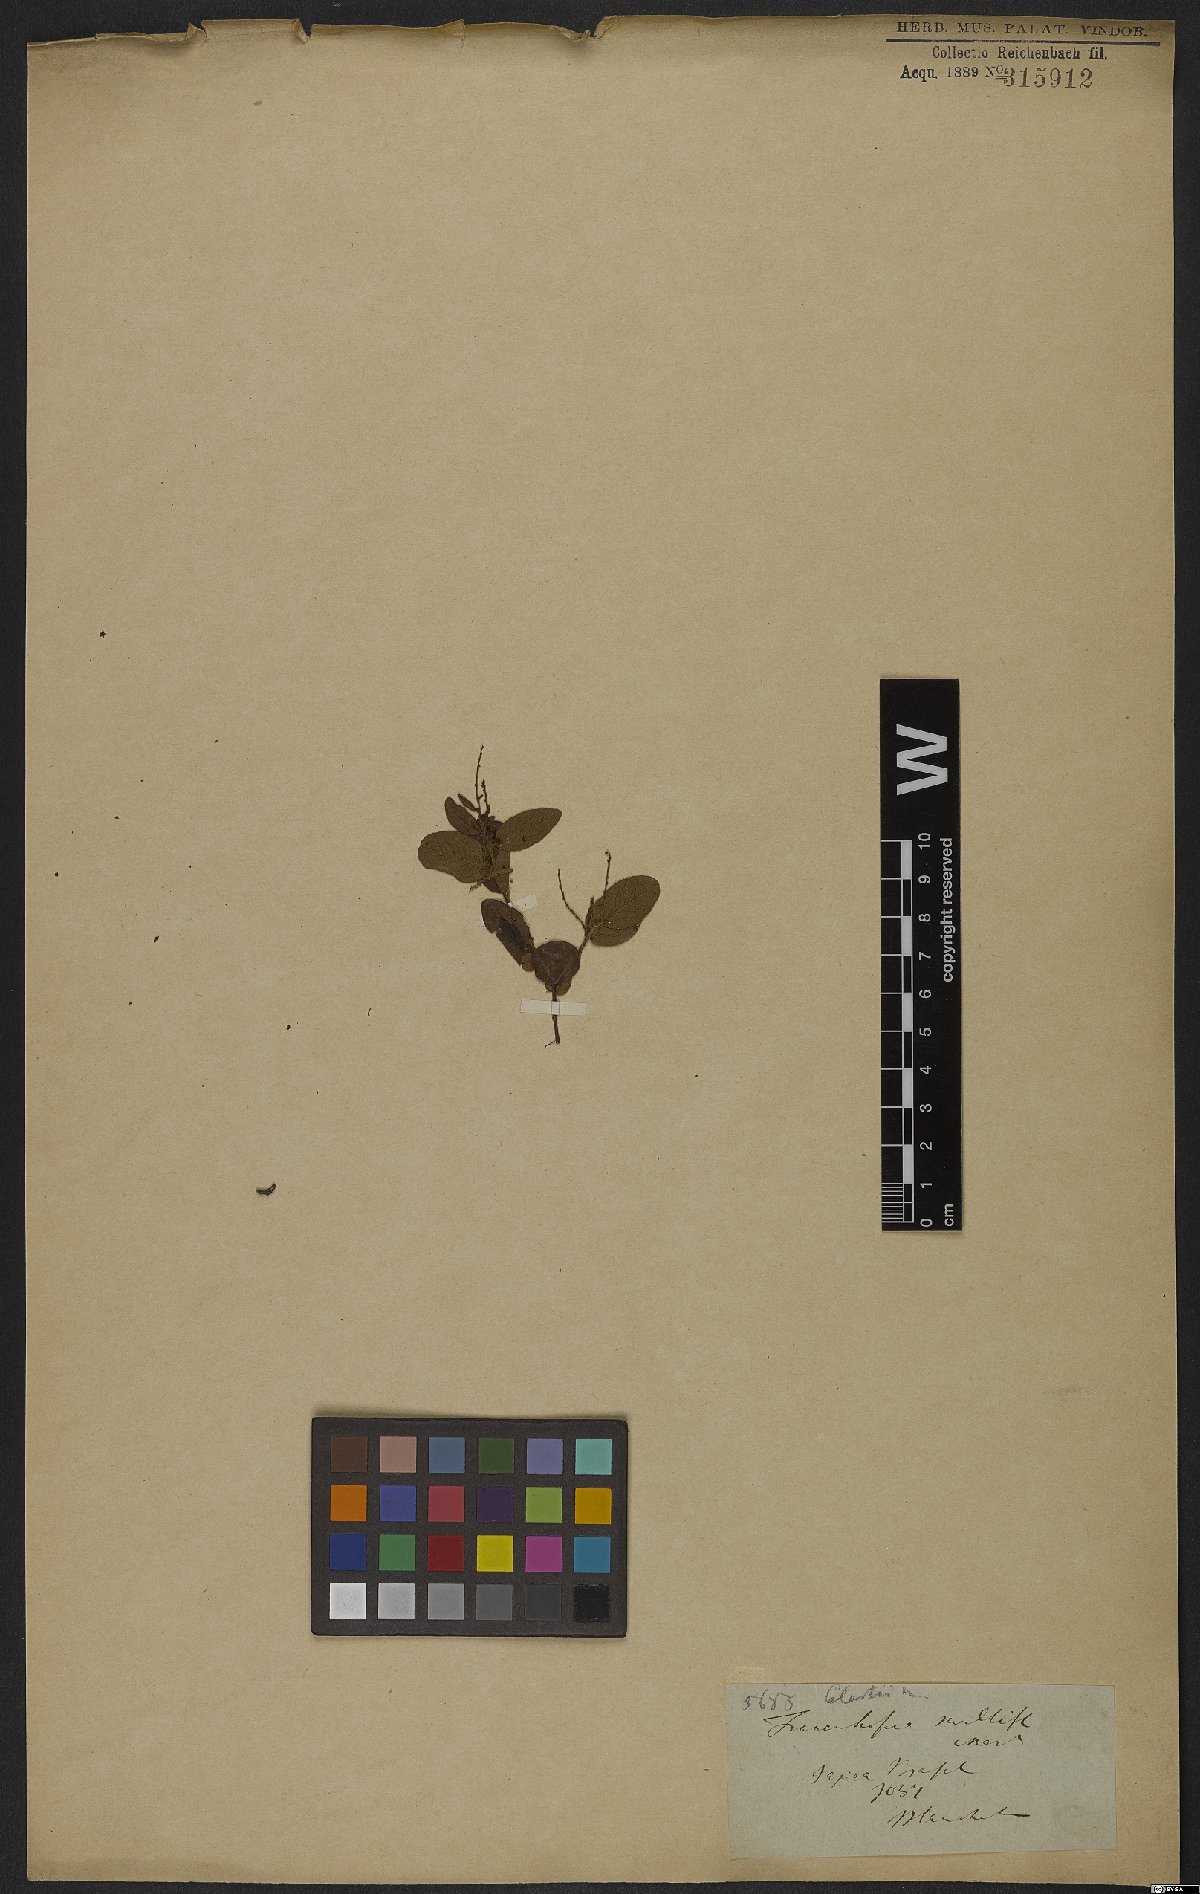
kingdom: Plantae
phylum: Tracheophyta
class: Magnoliopsida
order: Celastrales
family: Celastraceae
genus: Fraunhofera
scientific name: Fraunhofera multiflora
